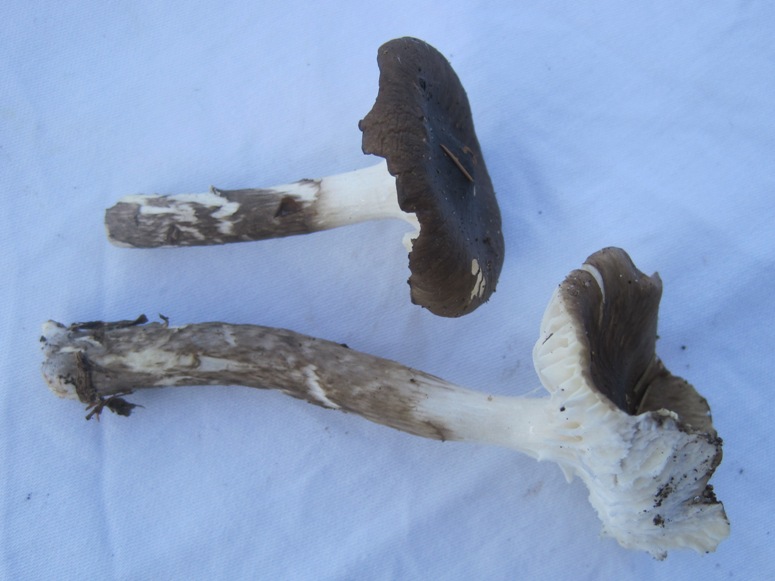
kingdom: Fungi
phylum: Basidiomycota
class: Agaricomycetes
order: Agaricales
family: Hygrophoraceae
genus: Hygrophorus
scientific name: Hygrophorus olivaceoalbus
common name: hvidbrun sneglehat
